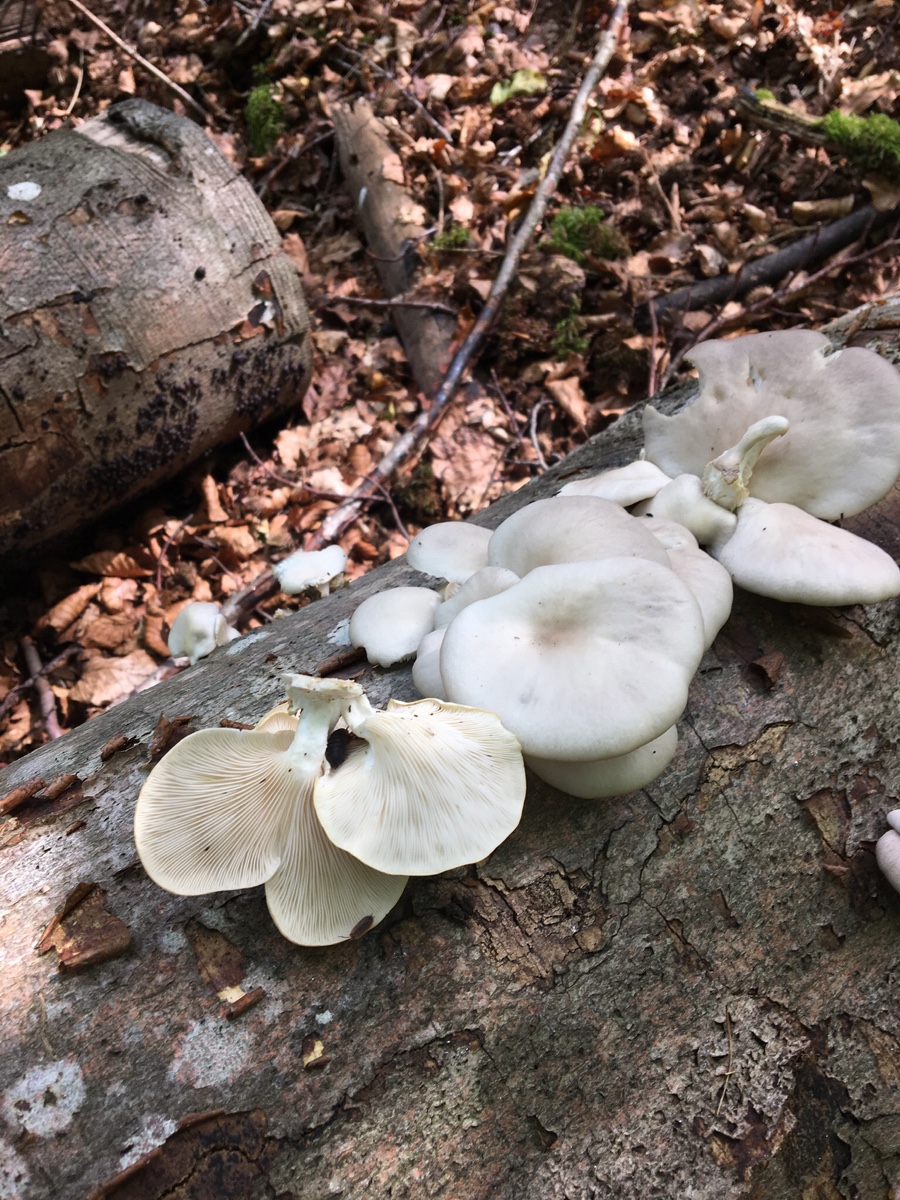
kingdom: Fungi
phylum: Basidiomycota
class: Agaricomycetes
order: Agaricales
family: Pleurotaceae
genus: Pleurotus
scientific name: Pleurotus pulmonarius
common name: sommer-østershat
